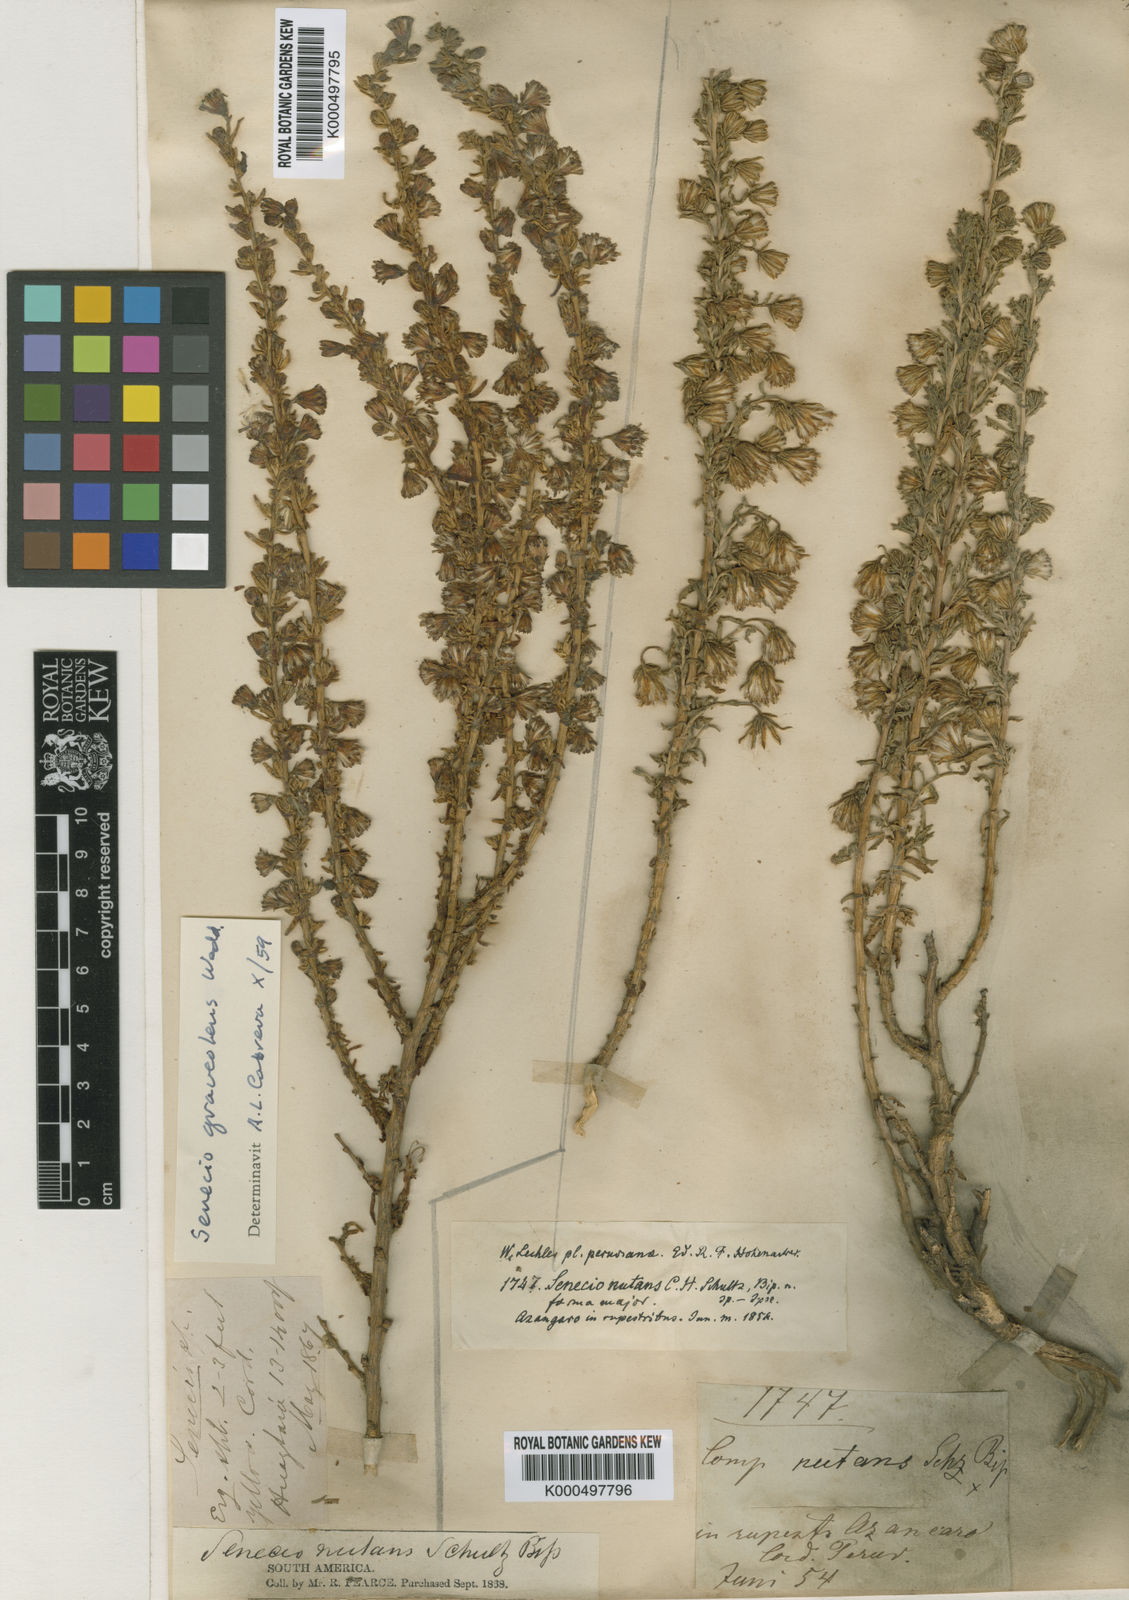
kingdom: Plantae
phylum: Tracheophyta
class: Magnoliopsida
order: Asterales
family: Asteraceae
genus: Senecio
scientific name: Senecio nutans
